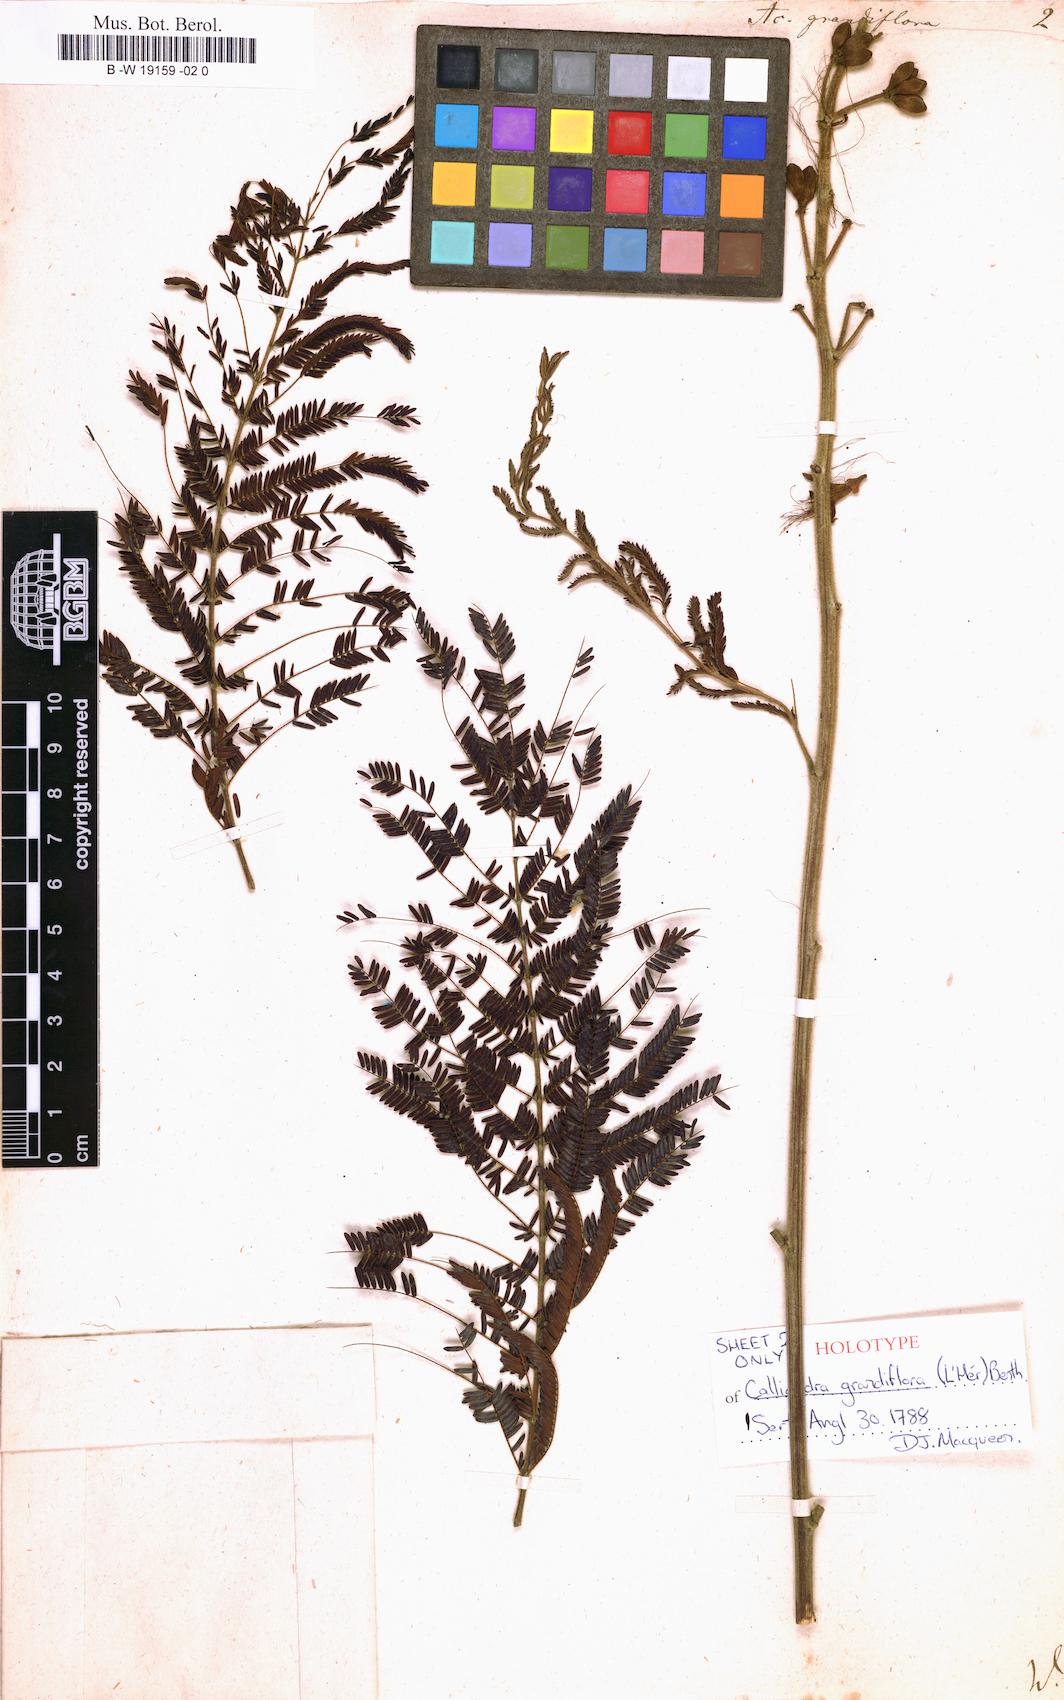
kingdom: Plantae
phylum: Tracheophyta
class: Magnoliopsida
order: Fabales
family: Fabaceae
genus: Calliandra
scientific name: Calliandra houstoniana
